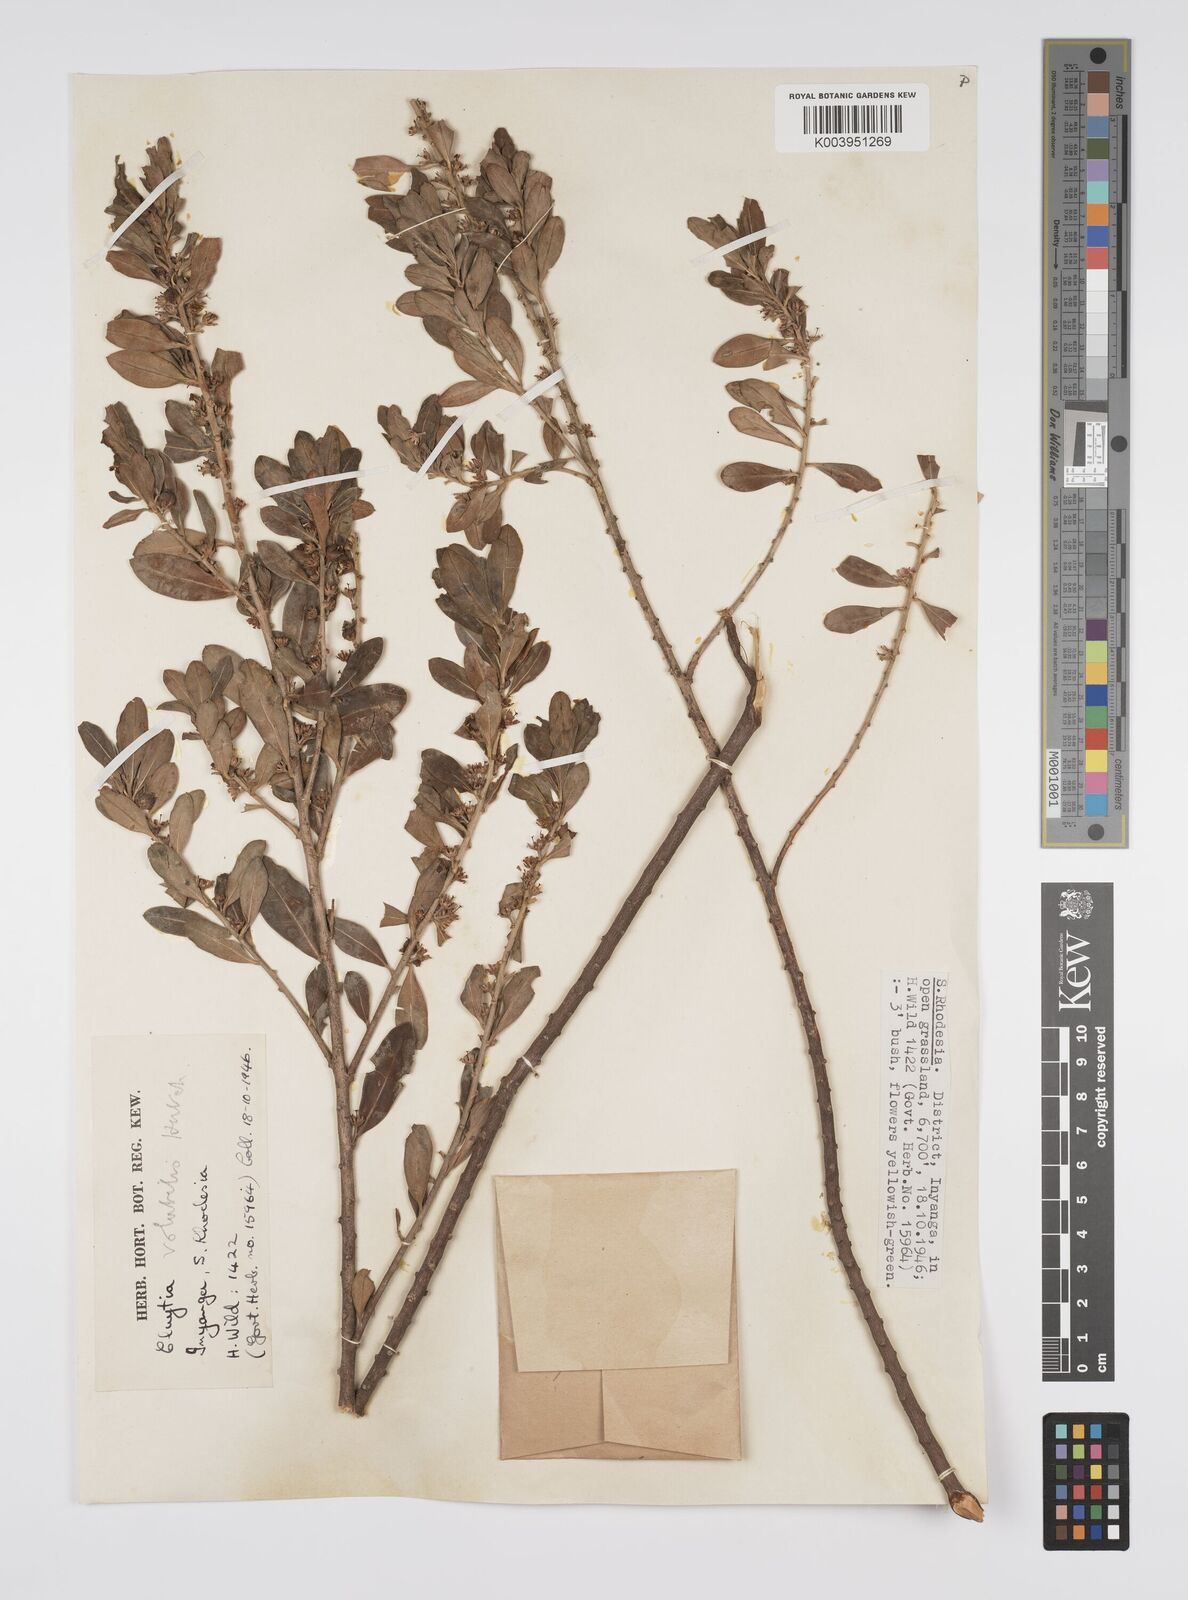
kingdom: Plantae
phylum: Tracheophyta
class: Magnoliopsida
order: Malpighiales
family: Peraceae
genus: Clutia
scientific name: Clutia
